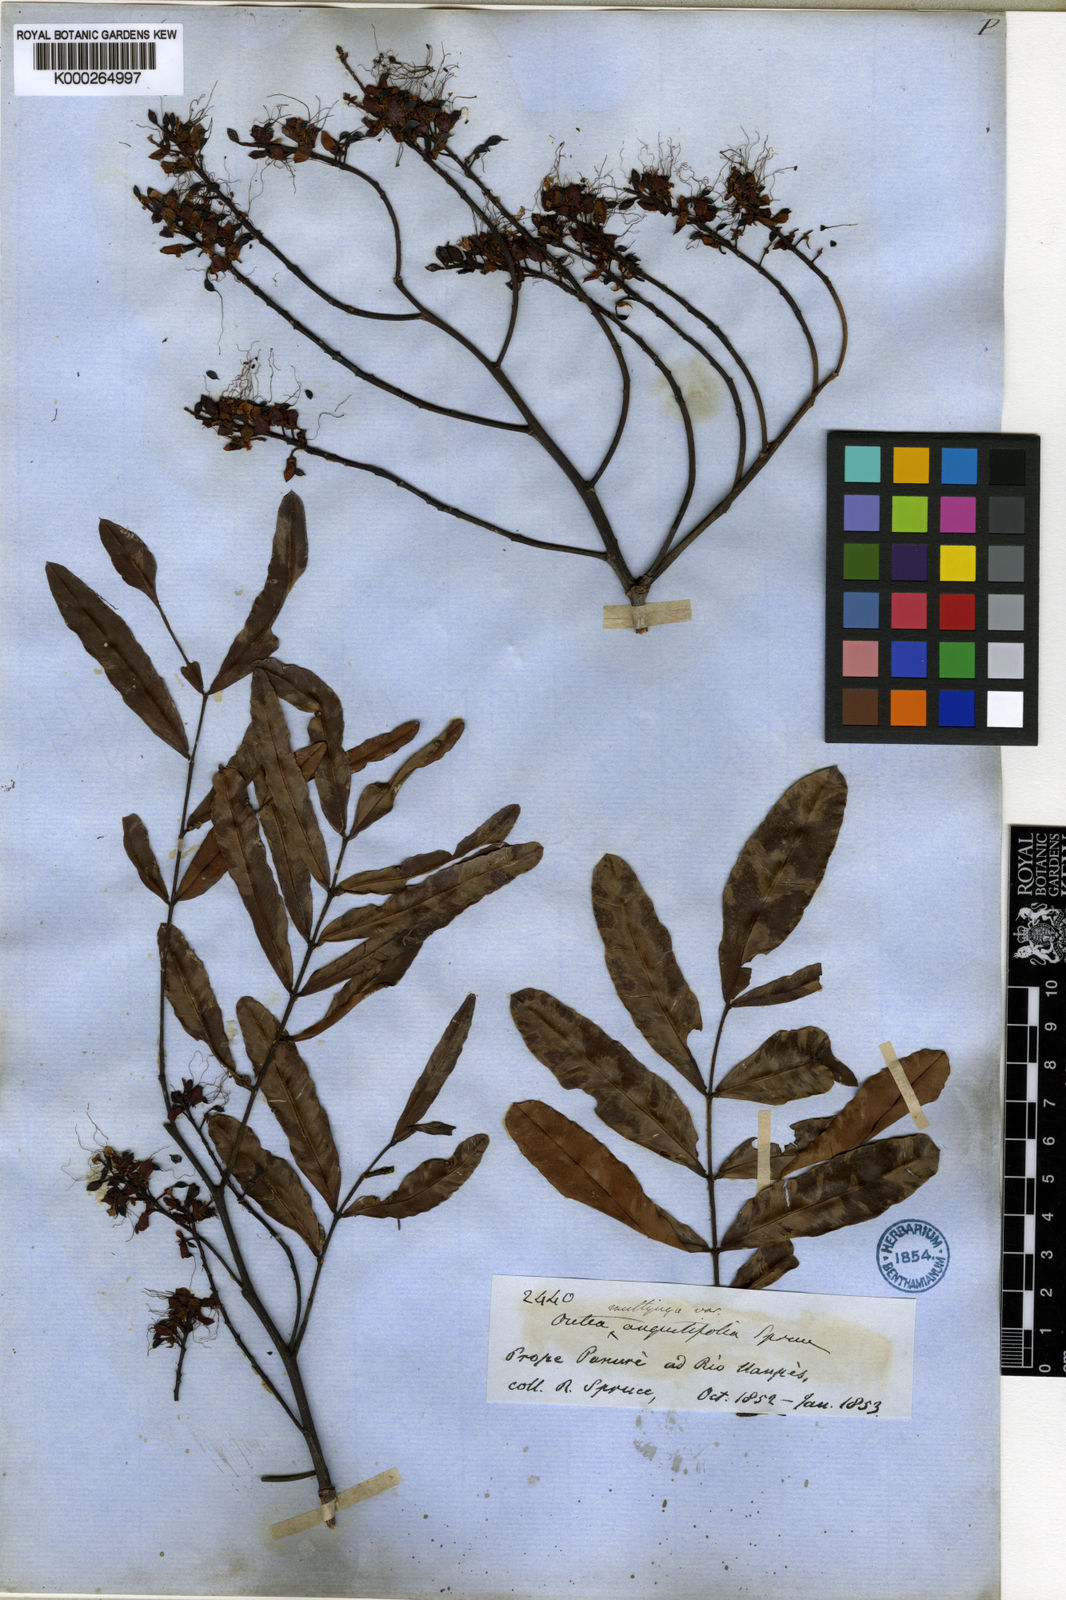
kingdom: Plantae
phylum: Tracheophyta
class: Magnoliopsida
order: Fabales
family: Fabaceae
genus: Macrolobium
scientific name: Macrolobium multijugum
